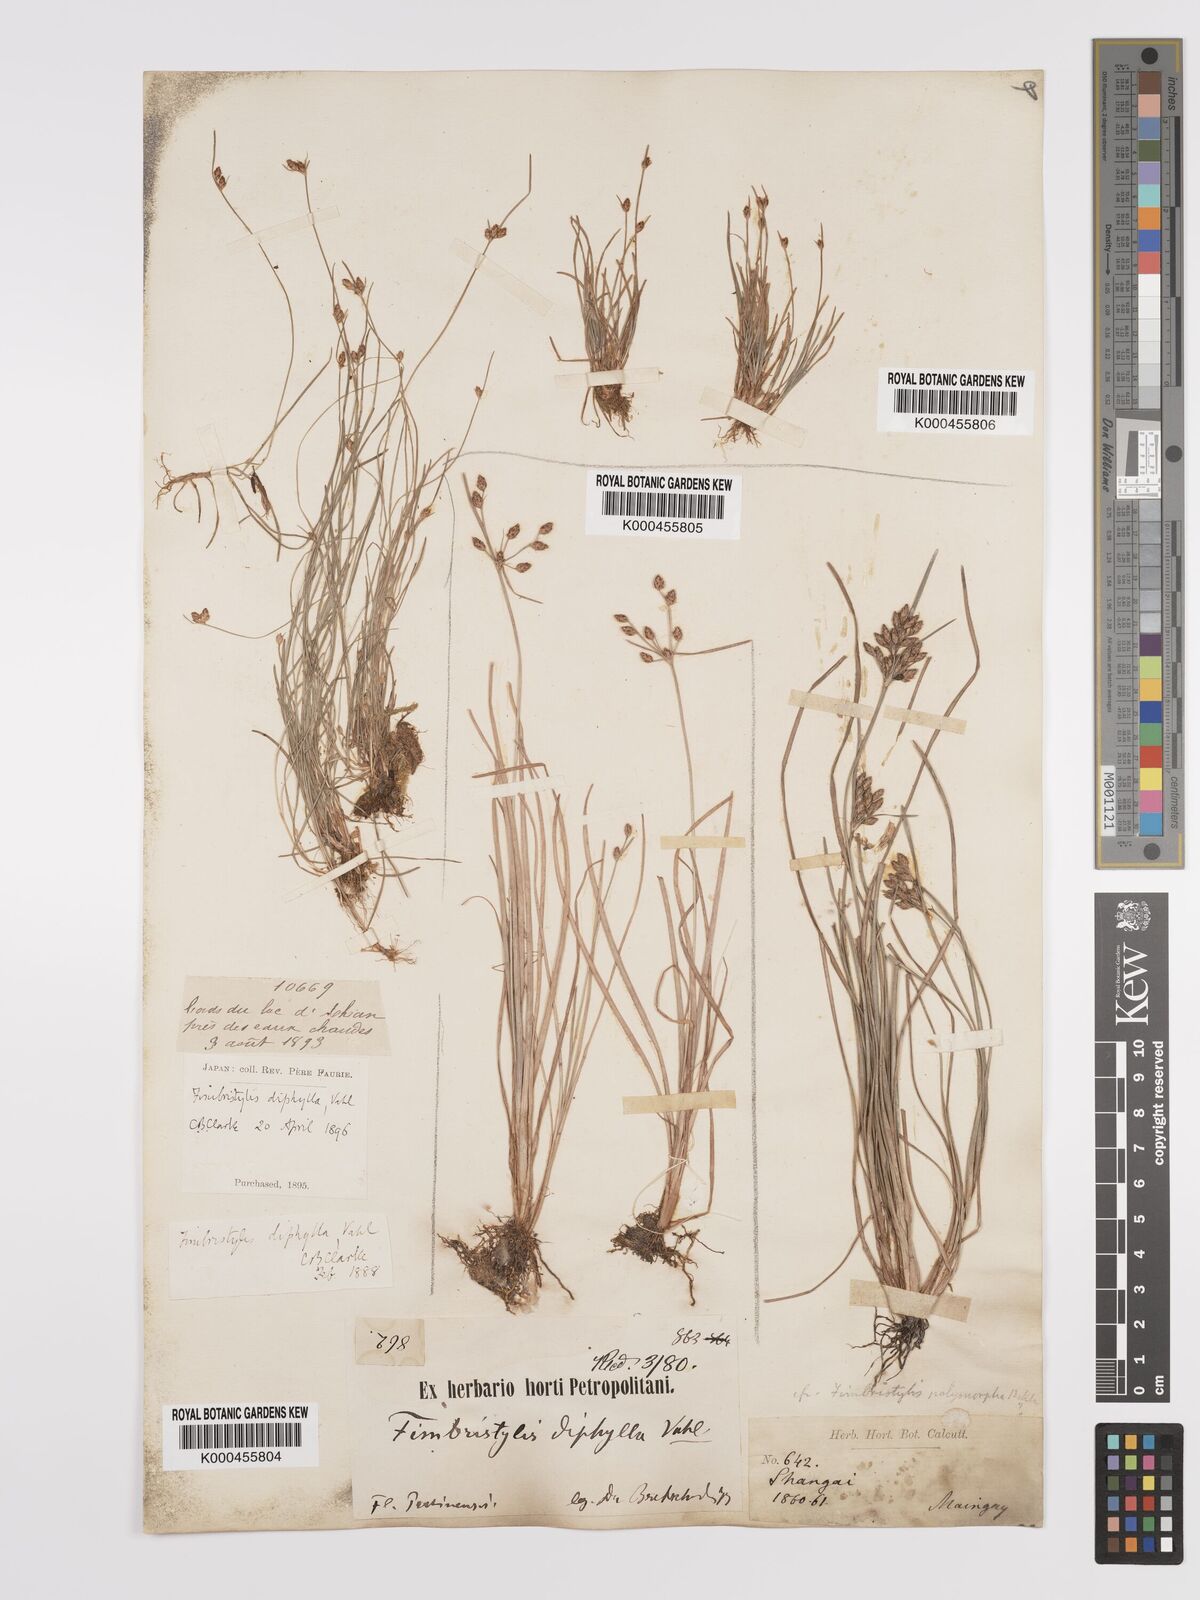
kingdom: Plantae
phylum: Tracheophyta
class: Liliopsida
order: Poales
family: Cyperaceae
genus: Fimbristylis
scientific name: Fimbristylis dichotoma
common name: Forked fimbry
